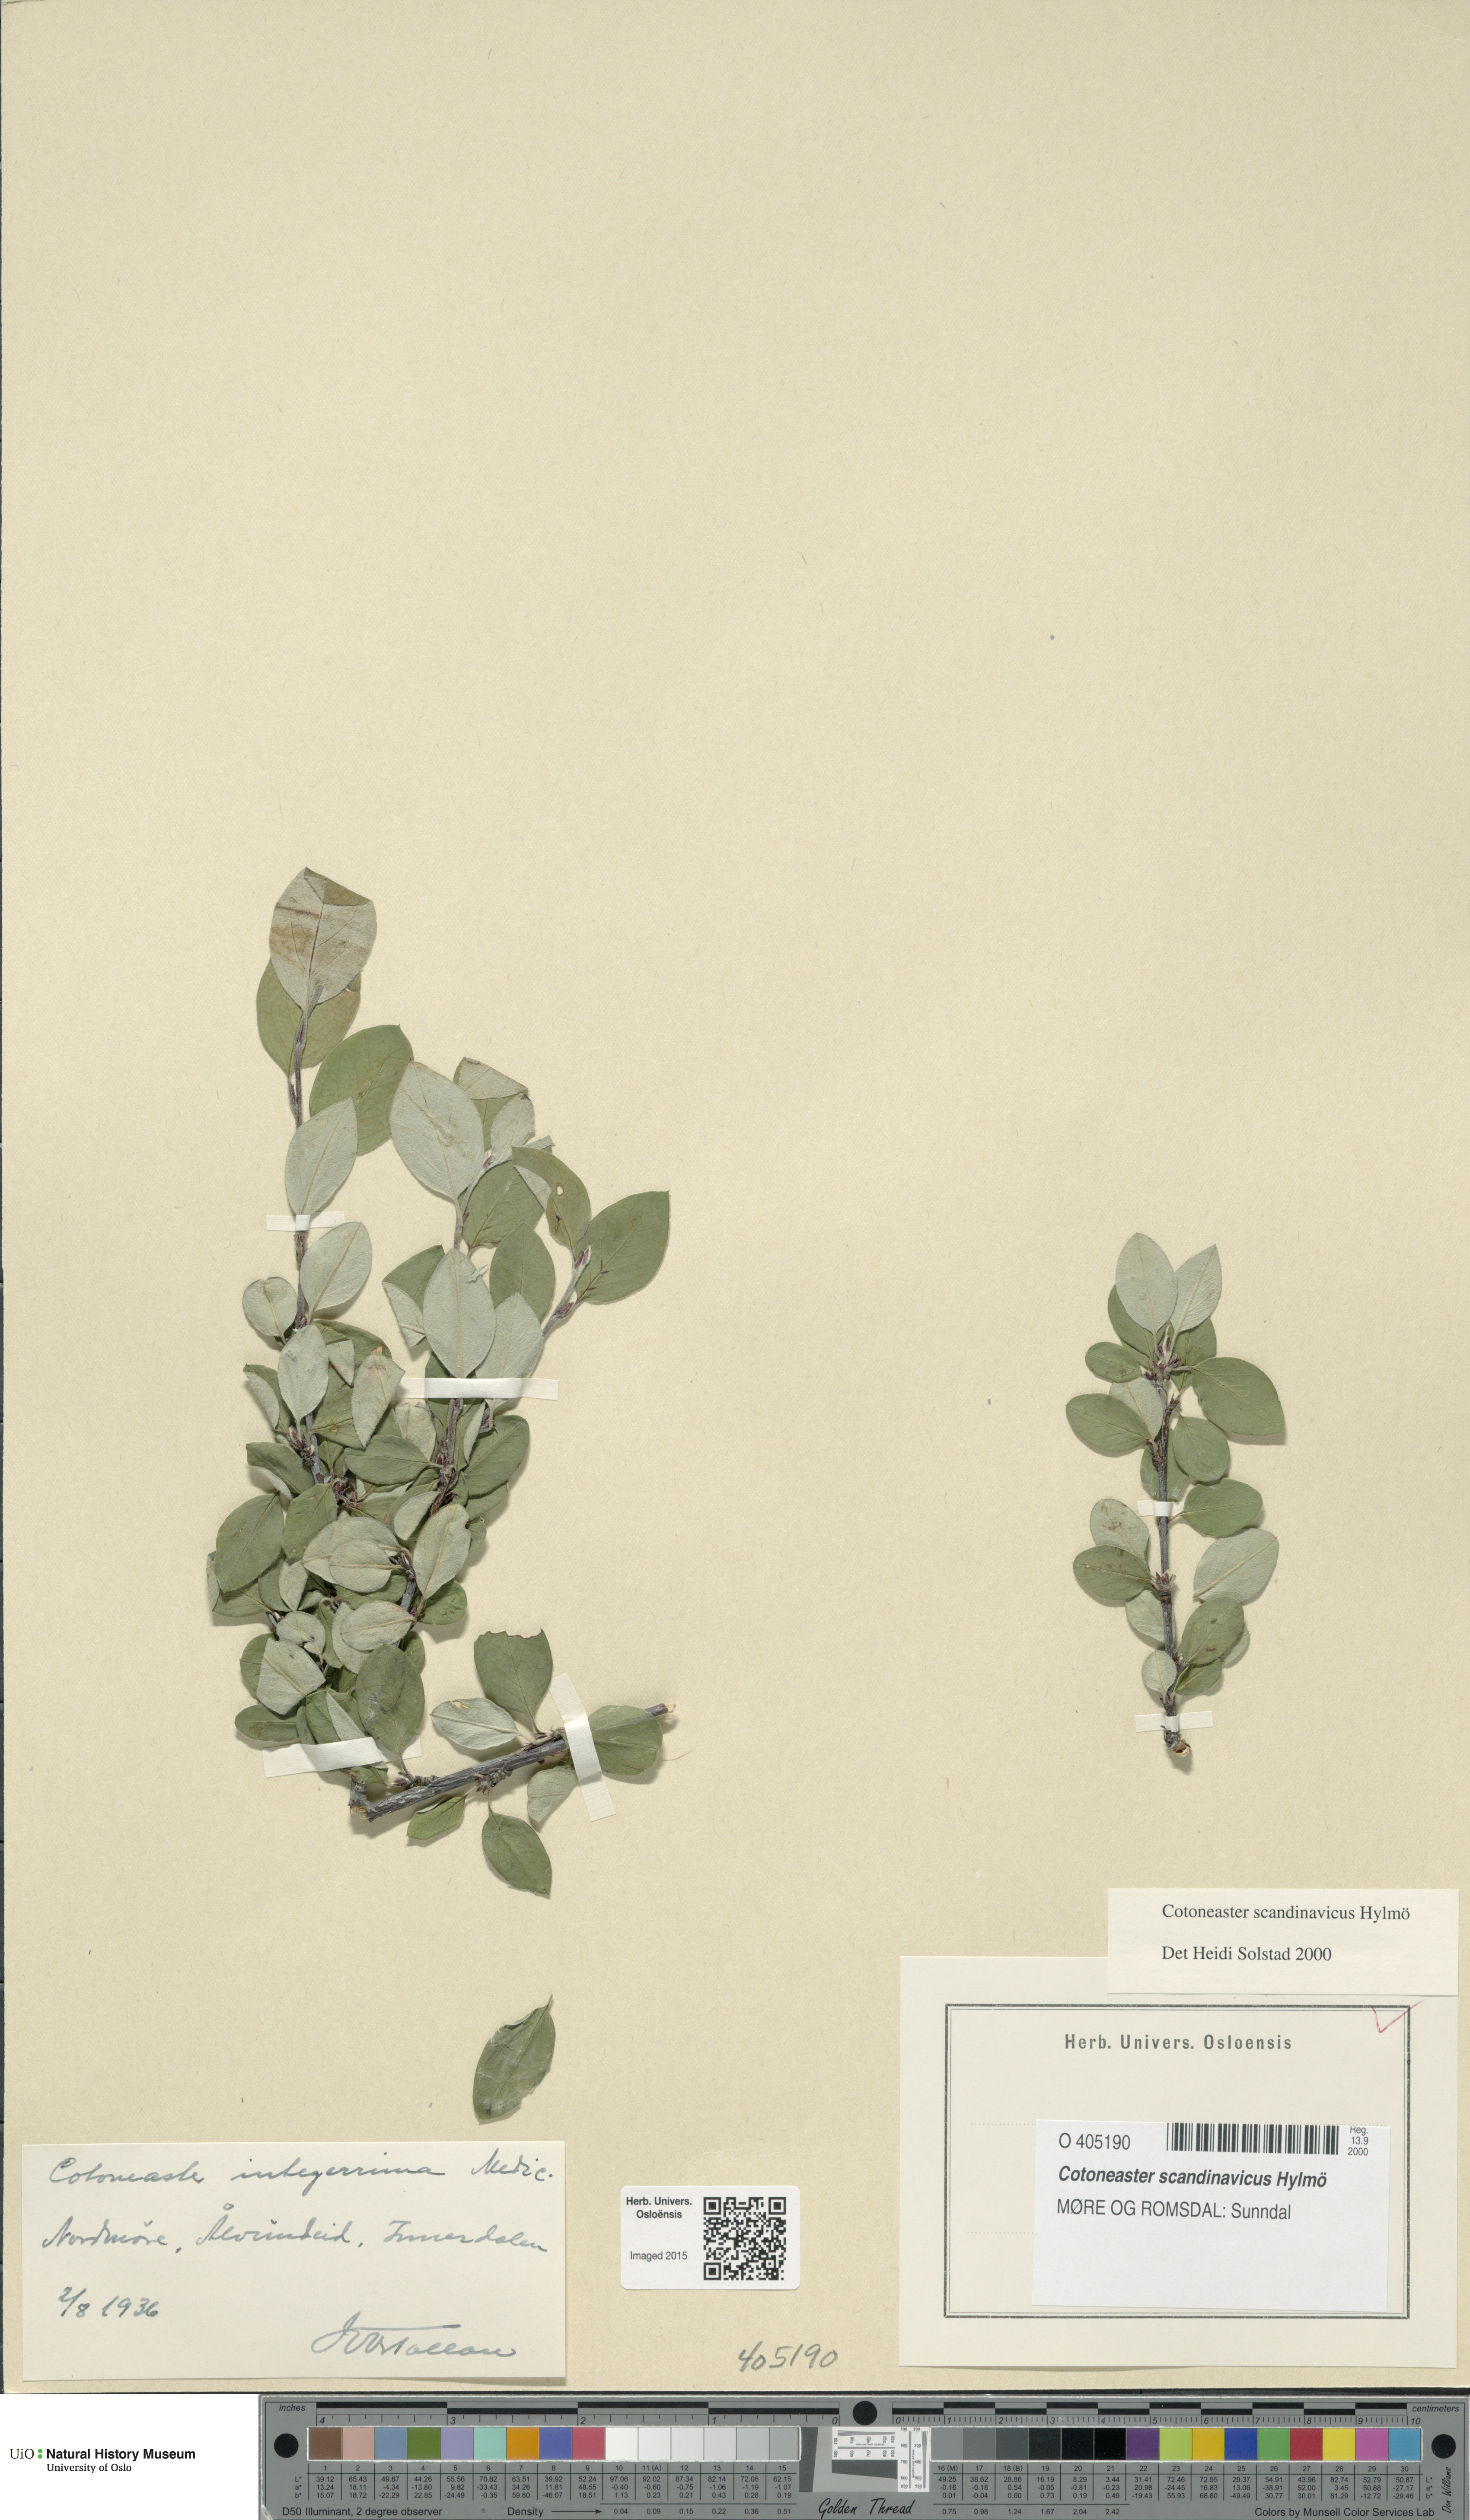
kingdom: Plantae
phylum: Tracheophyta
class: Magnoliopsida
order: Rosales
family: Rosaceae
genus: Cotoneaster
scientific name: Cotoneaster integerrimus
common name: Wild cotoneaster
